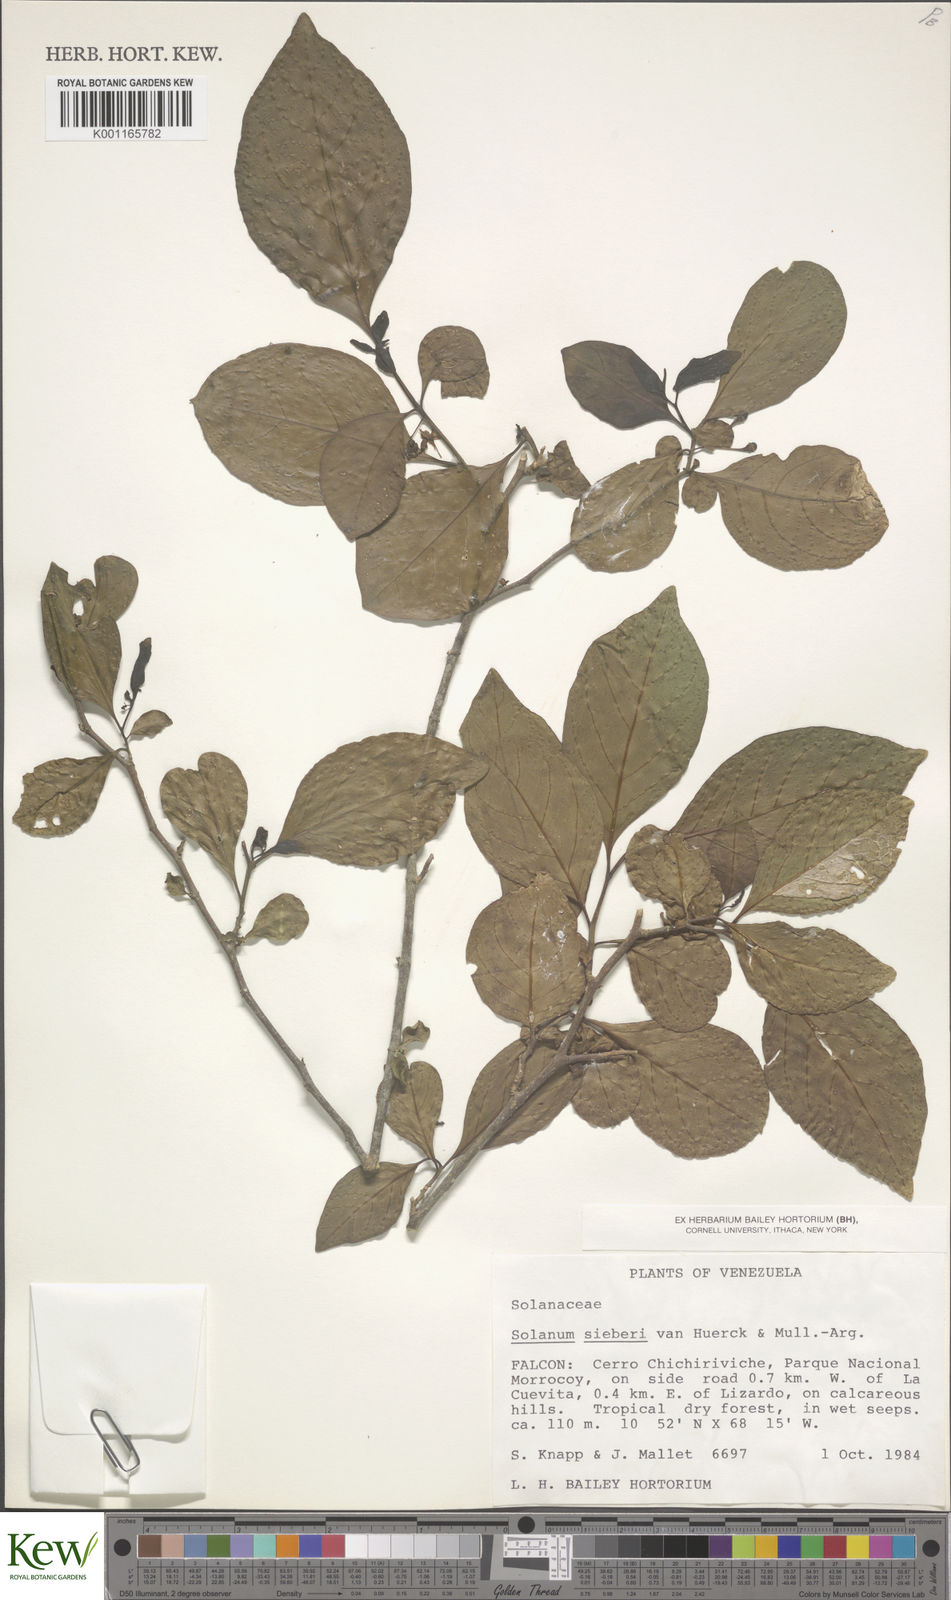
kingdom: Plantae
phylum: Tracheophyta
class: Magnoliopsida
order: Solanales
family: Solanaceae
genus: Solanum
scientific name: Solanum sieberi
